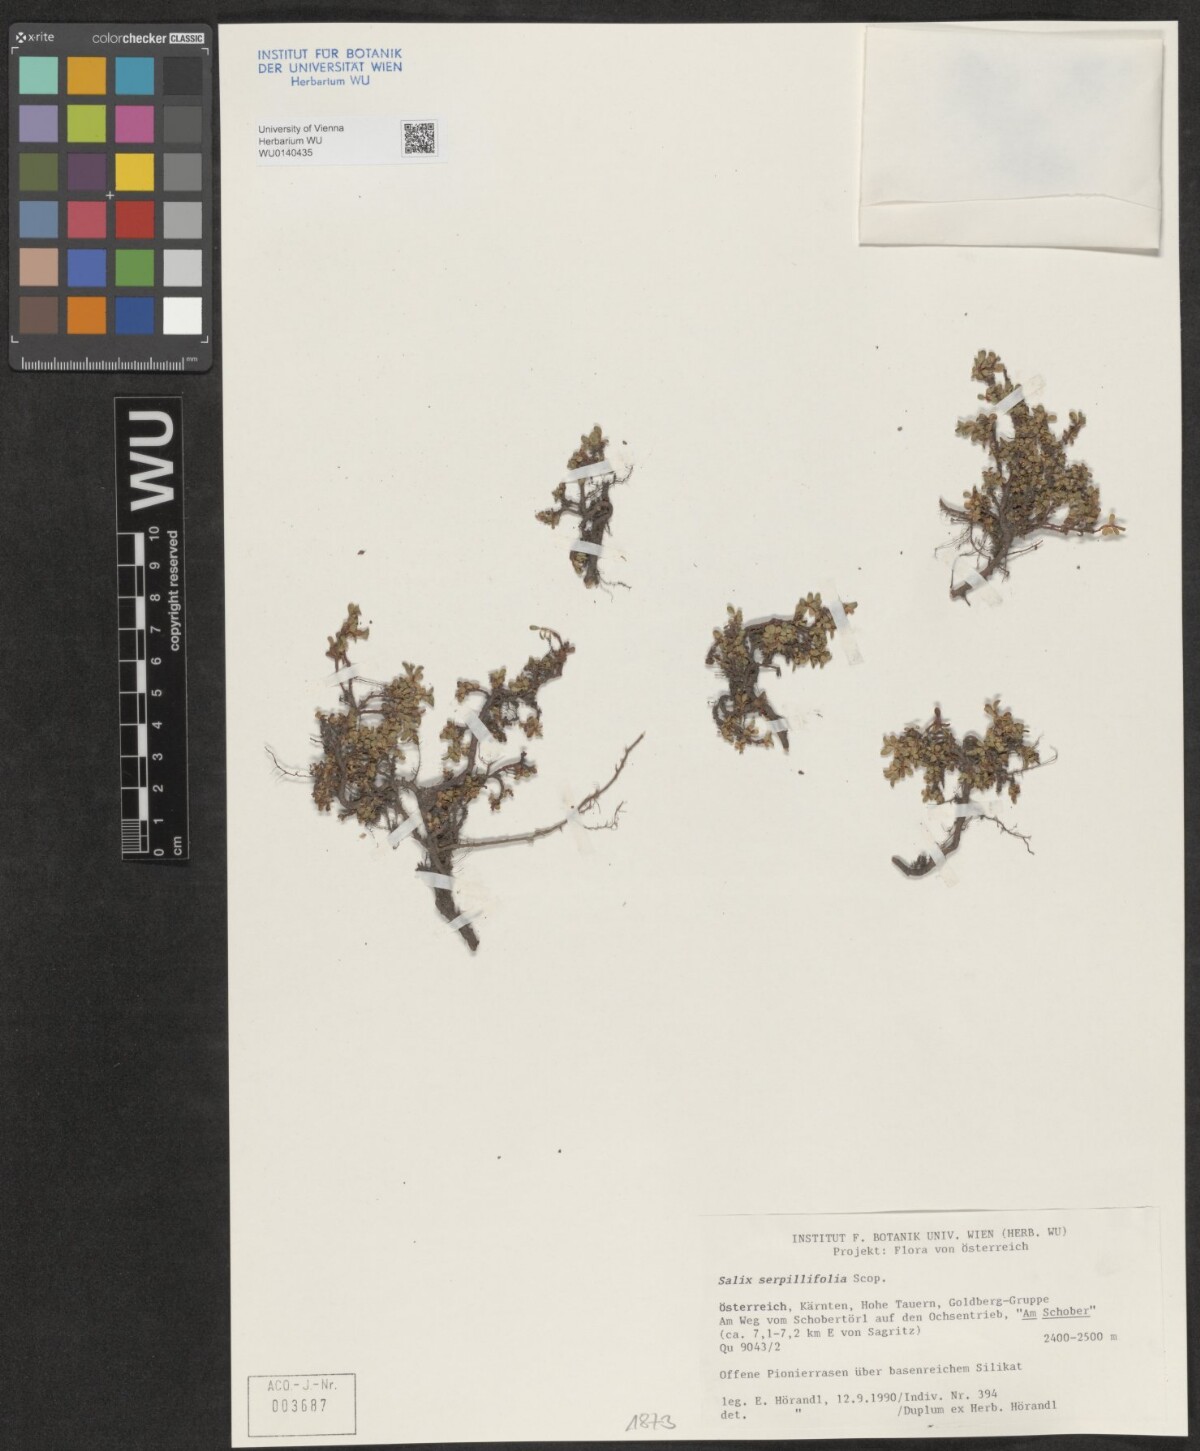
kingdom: Plantae
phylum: Tracheophyta
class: Magnoliopsida
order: Malpighiales
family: Salicaceae
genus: Salix
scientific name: Salix serpillifolia
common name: Thyme-leaf willow
